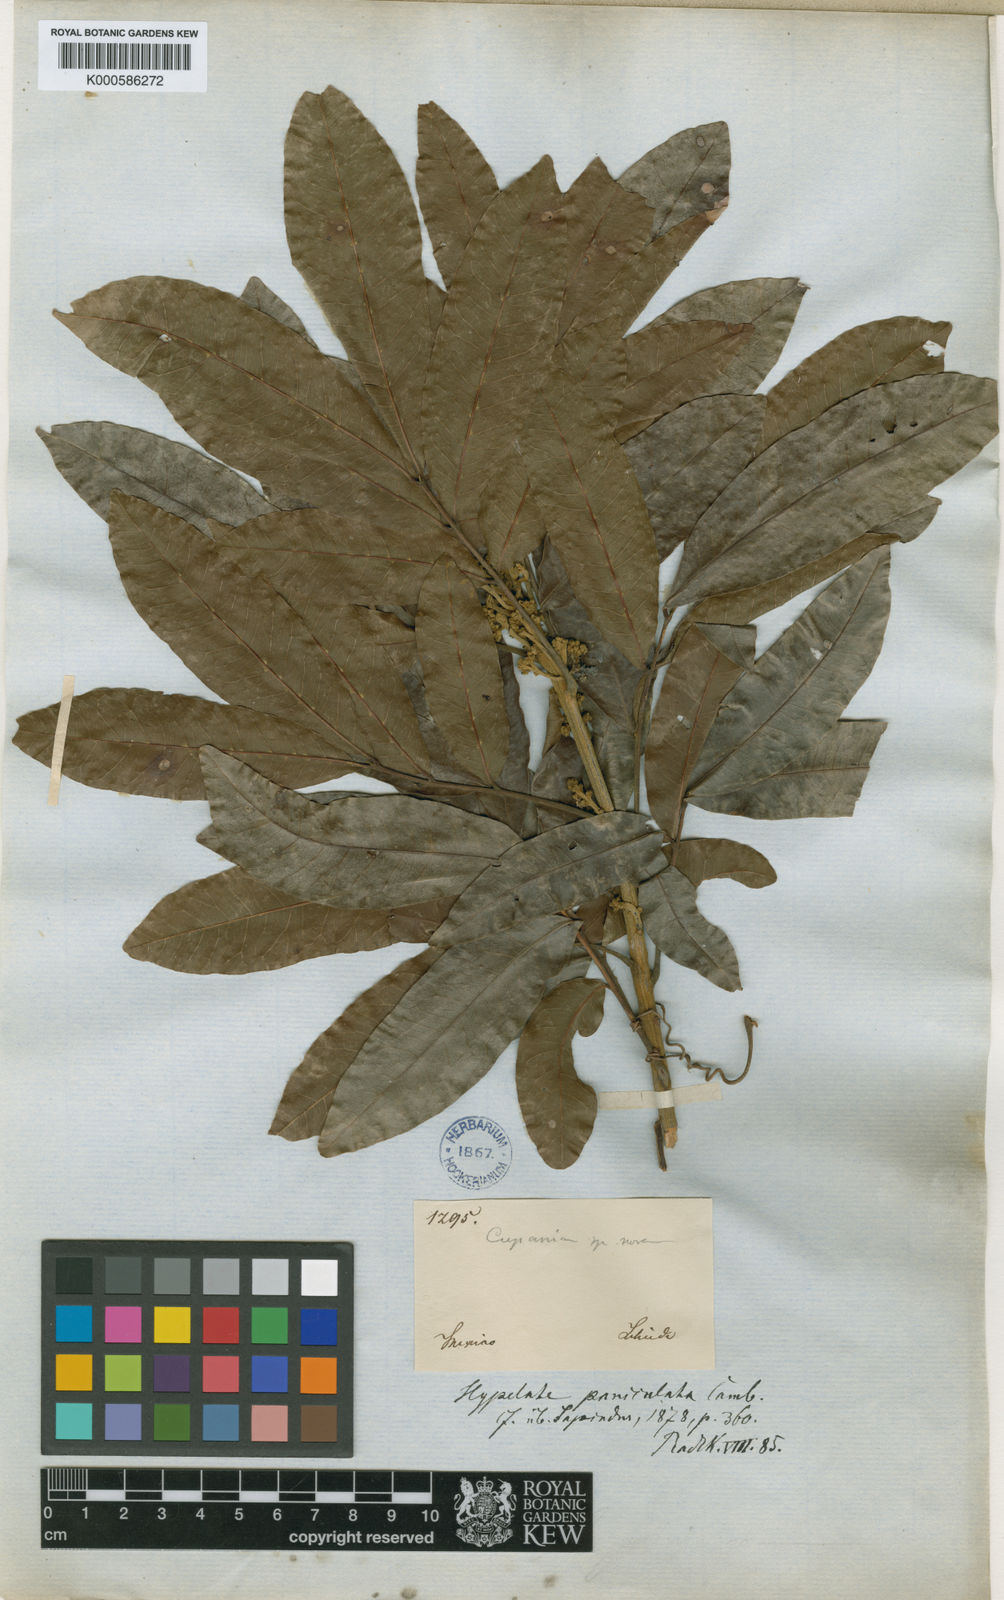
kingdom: Plantae
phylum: Tracheophyta
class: Magnoliopsida
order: Sapindales
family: Sapindaceae
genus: Exothea
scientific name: Exothea paniculata
